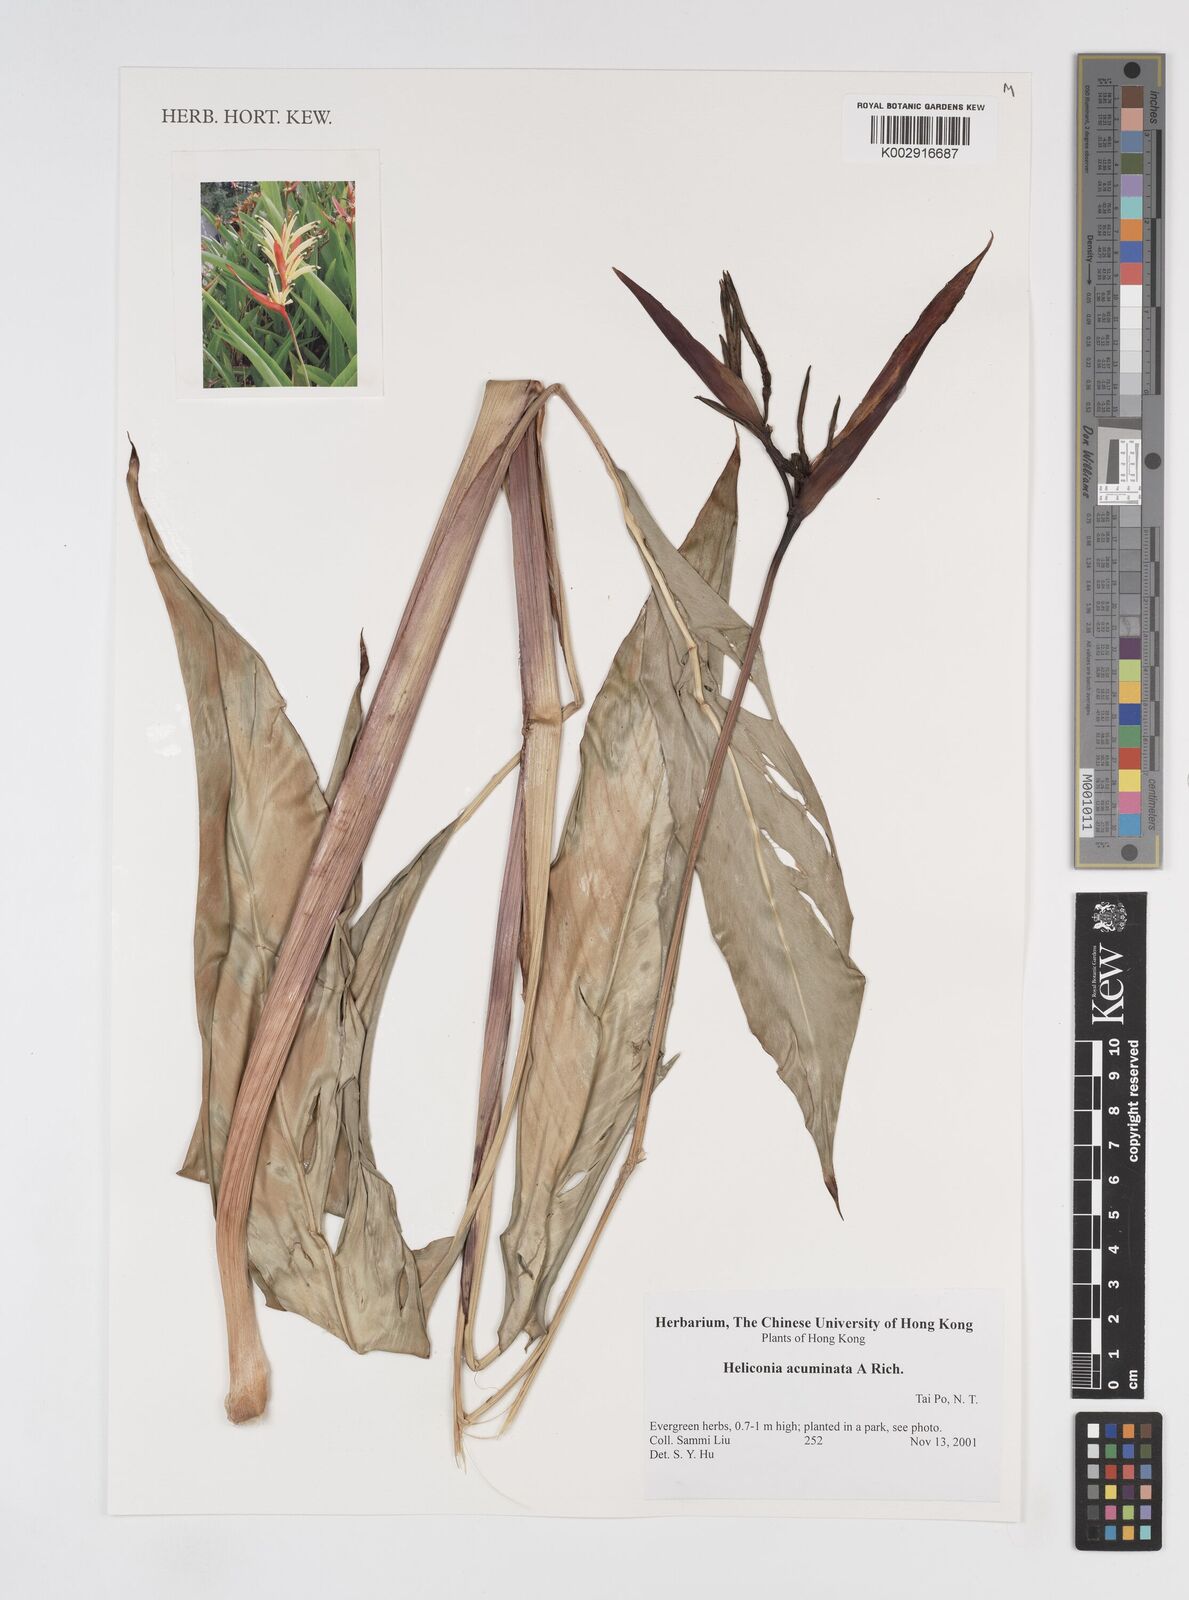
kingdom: Plantae
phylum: Tracheophyta
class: Liliopsida
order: Zingiberales
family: Heliconiaceae
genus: Heliconia
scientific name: Heliconia acuminata
